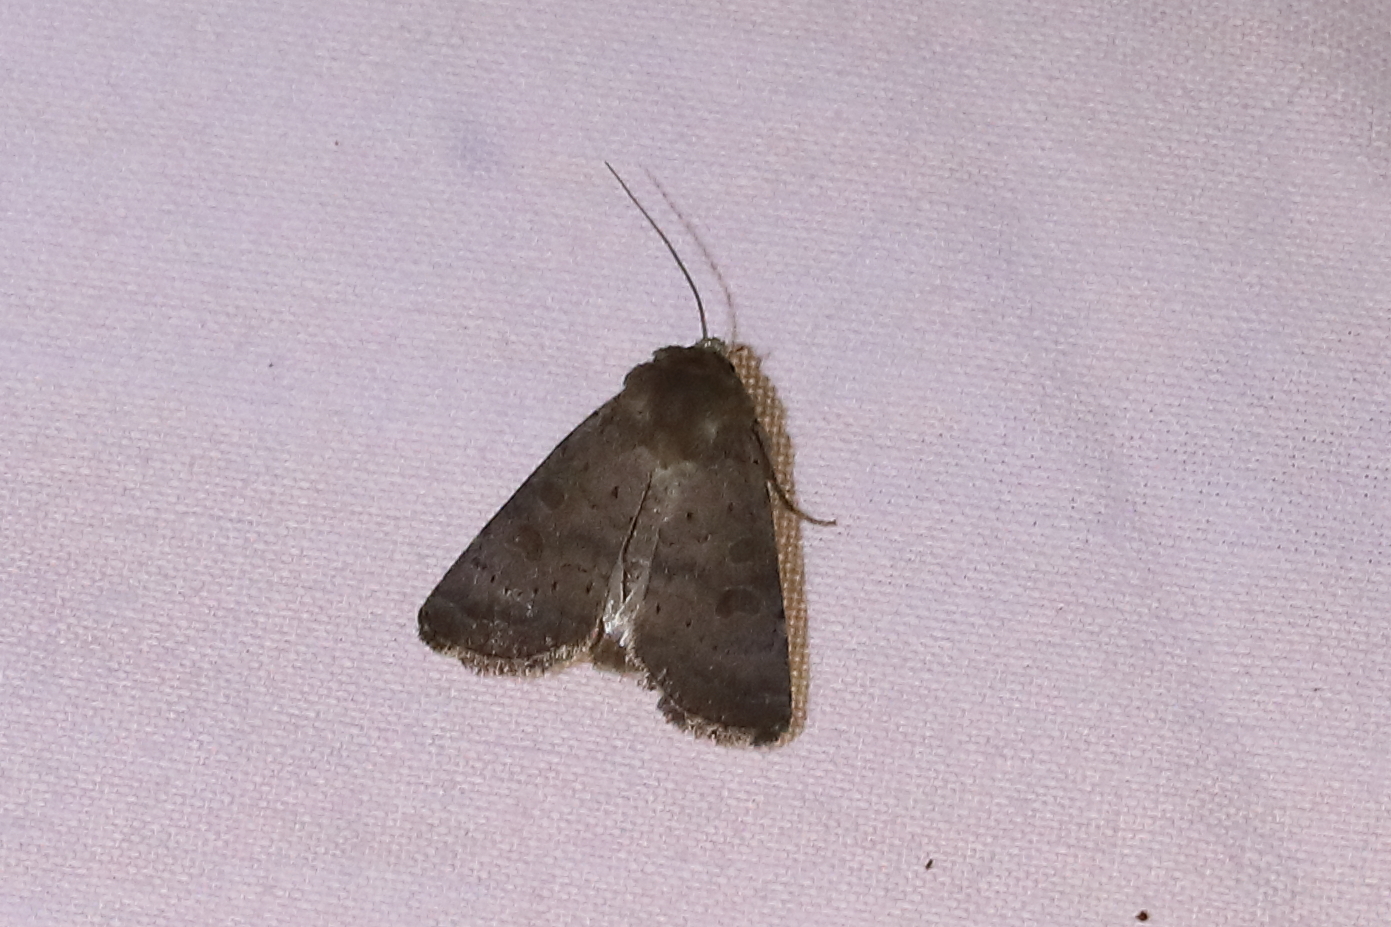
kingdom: Animalia
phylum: Arthropoda
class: Insecta
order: Lepidoptera
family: Noctuidae
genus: Hoplodrina
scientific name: Hoplodrina blanda
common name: Rustic
